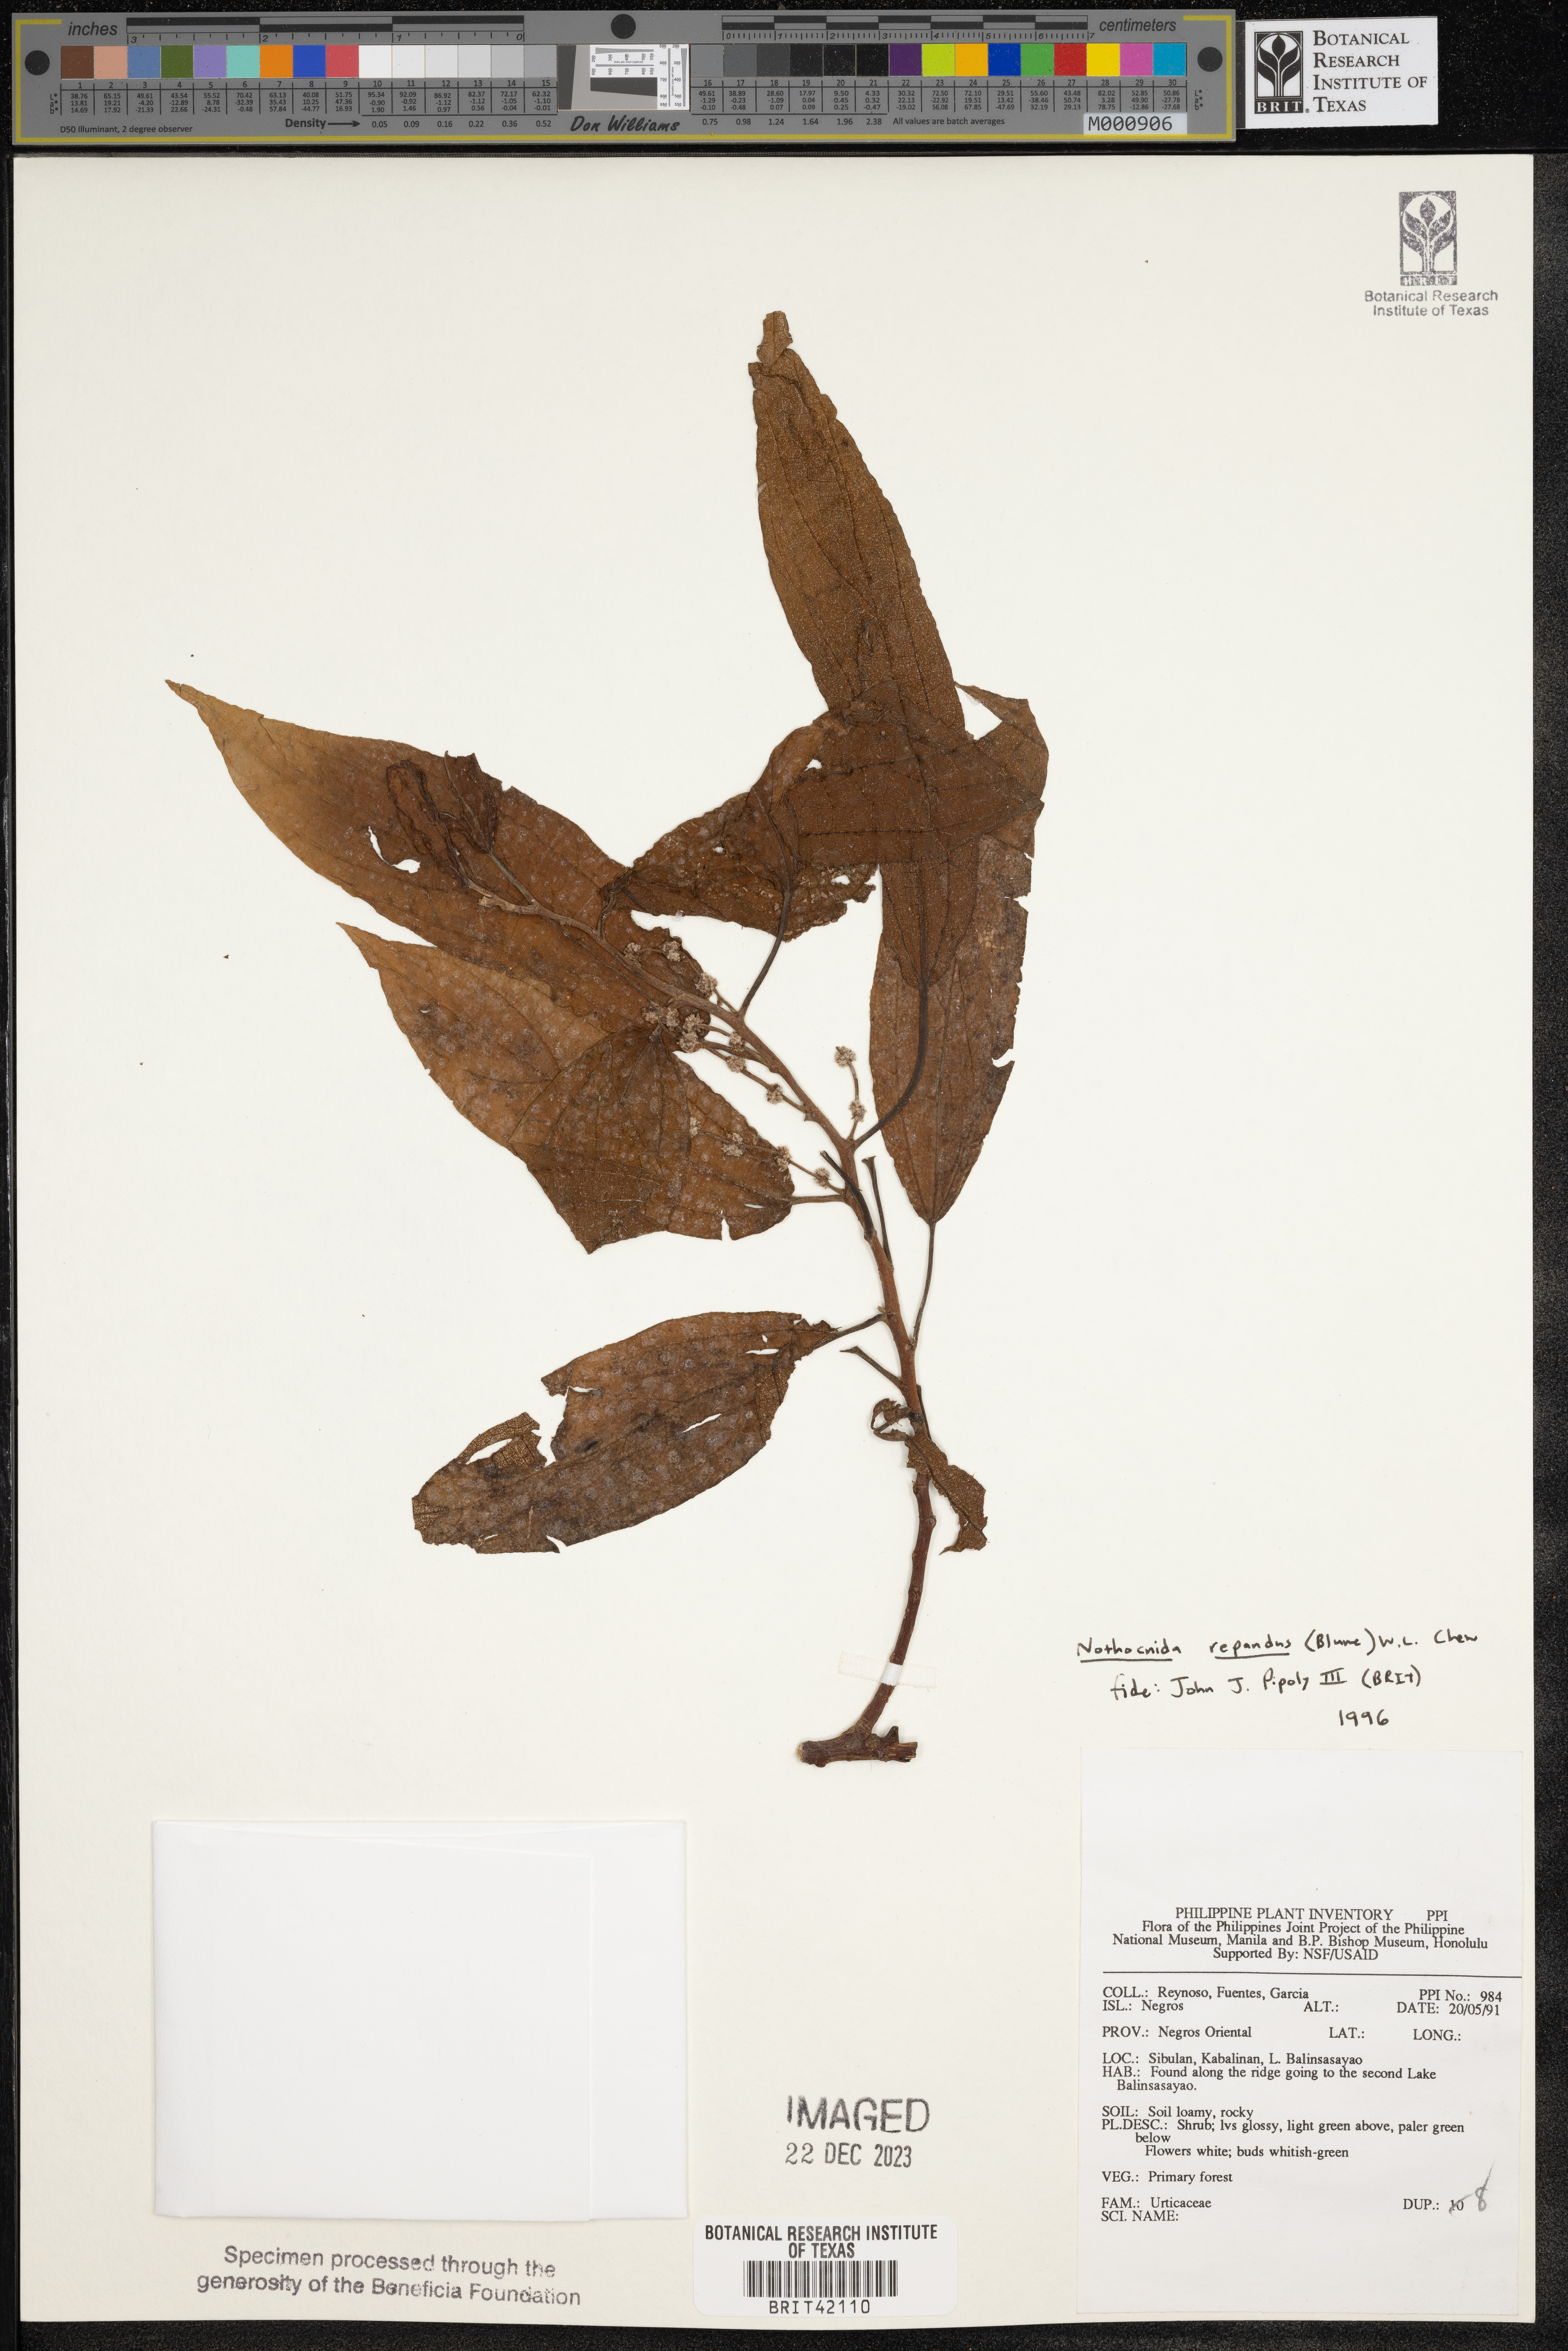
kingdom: Plantae
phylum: Tracheophyta
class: Magnoliopsida
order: Rosales
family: Urticaceae
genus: Nothocnide
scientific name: Nothocnide repanda
